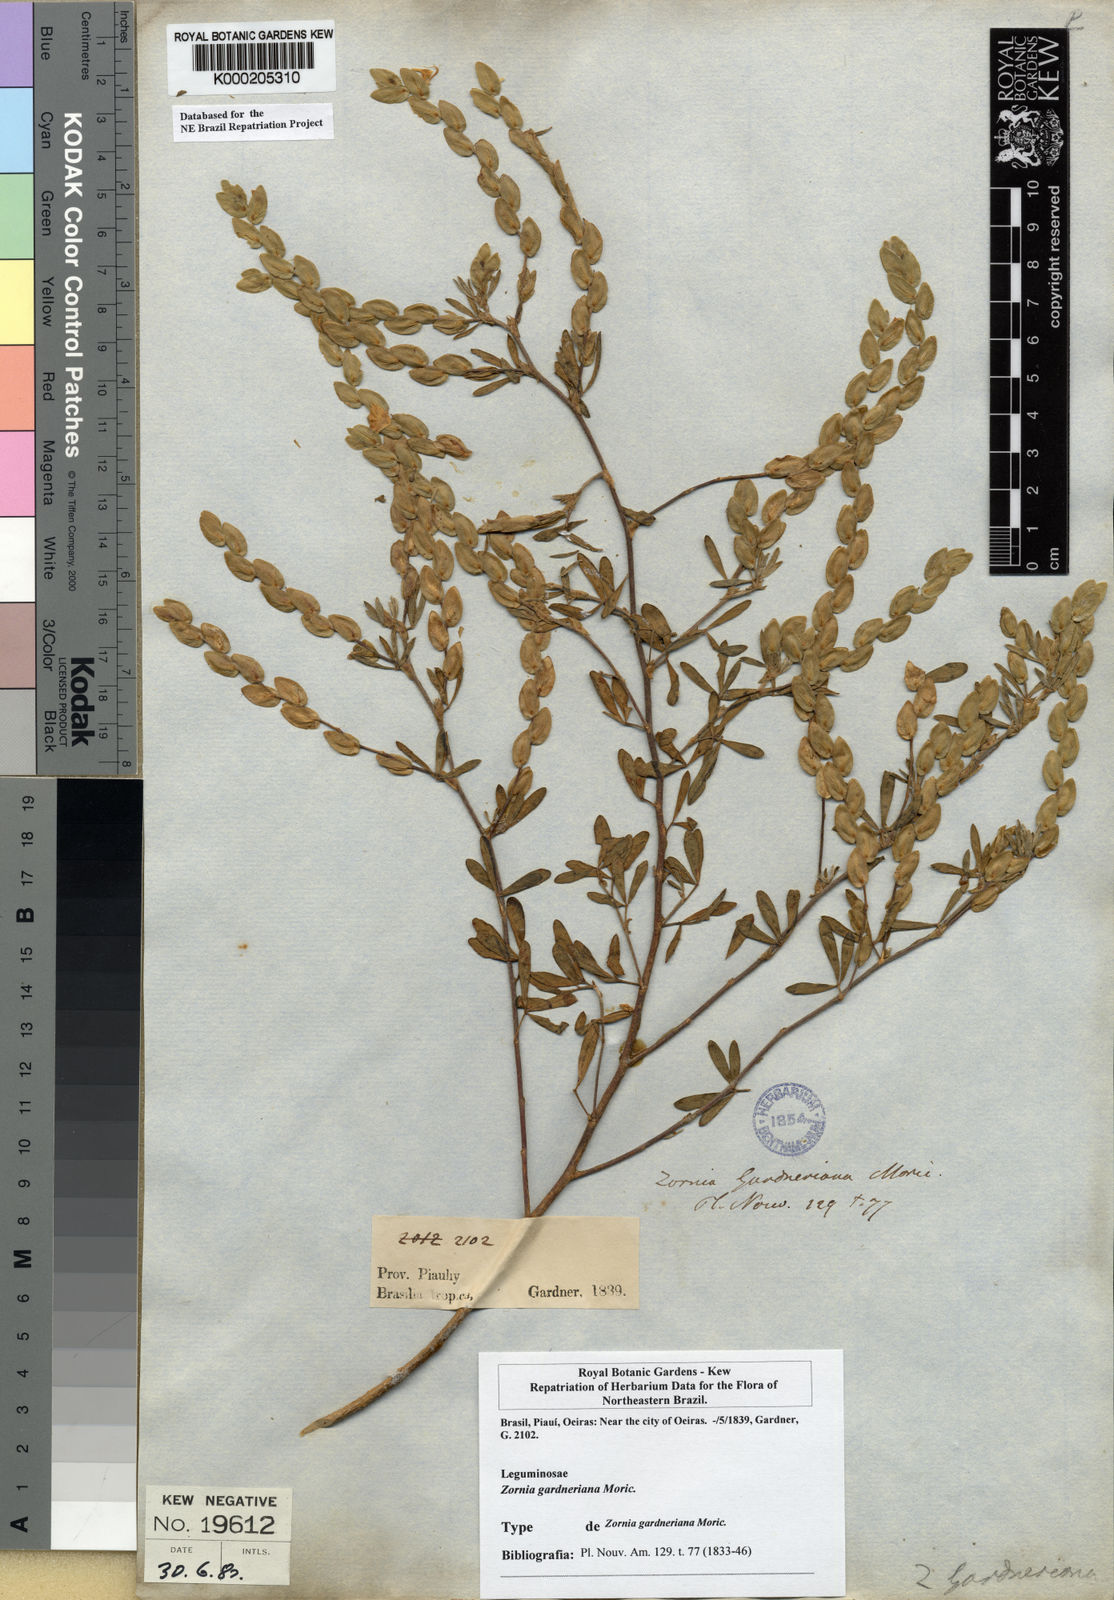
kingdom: Plantae
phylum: Tracheophyta
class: Magnoliopsida
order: Fabales
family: Fabaceae
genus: Zornia
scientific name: Zornia gardneriana
